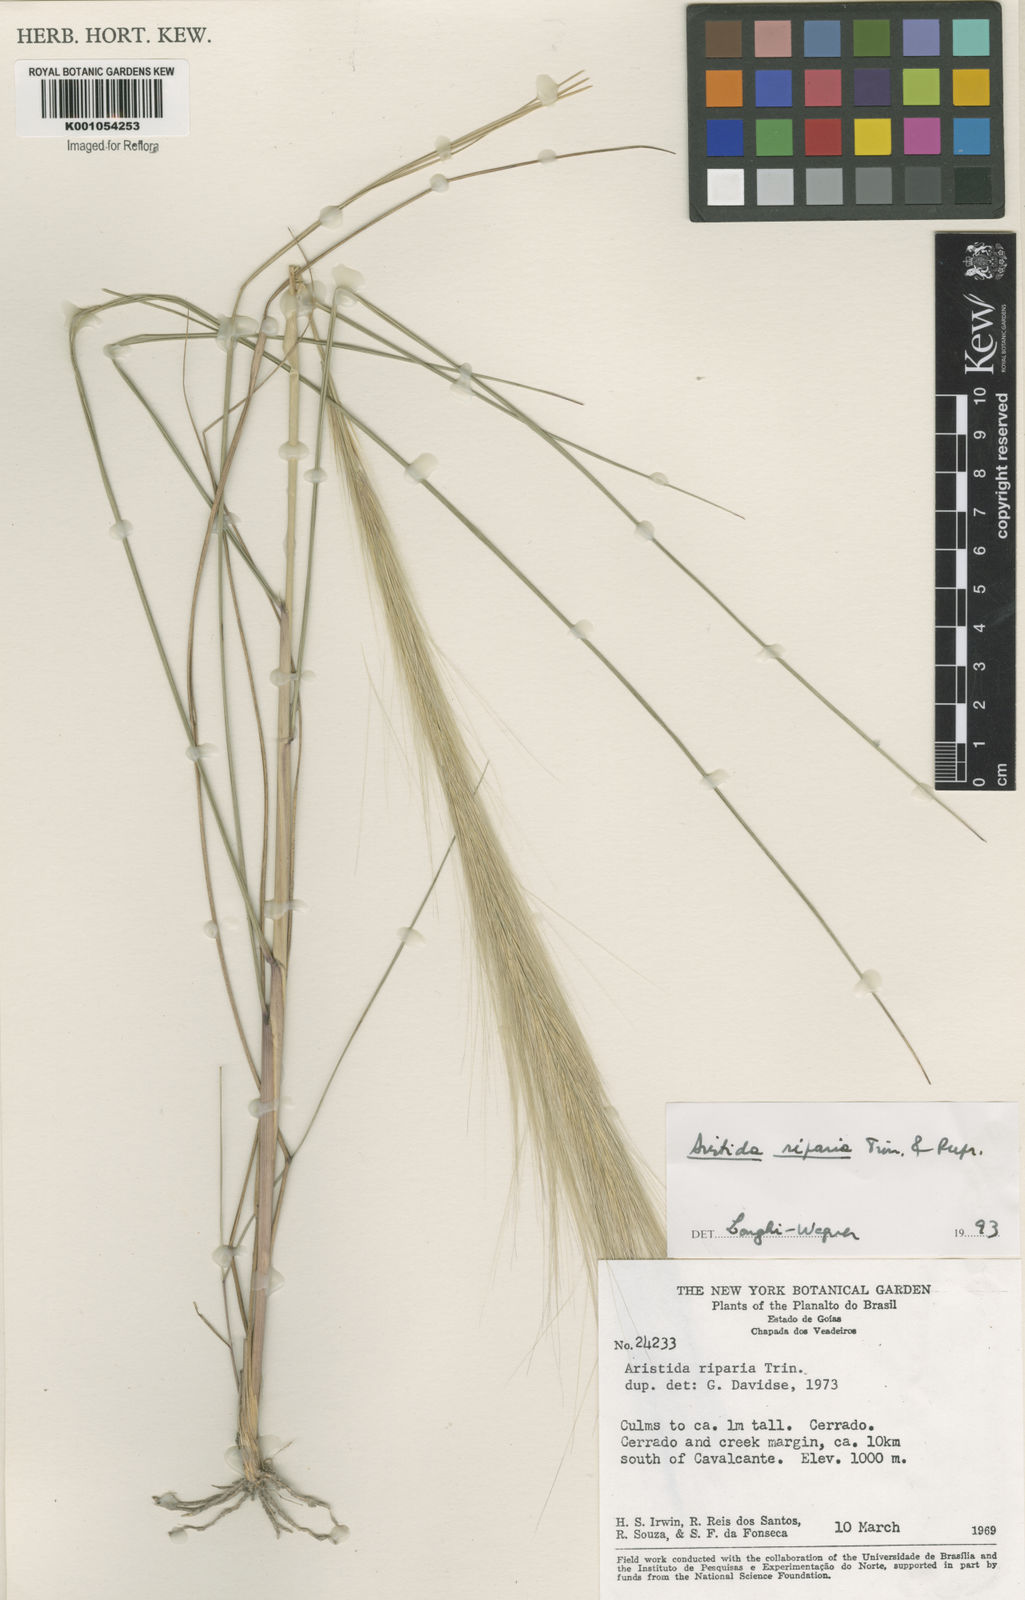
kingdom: Plantae
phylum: Tracheophyta
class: Liliopsida
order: Poales
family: Poaceae
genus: Aristida
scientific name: Aristida riparia
